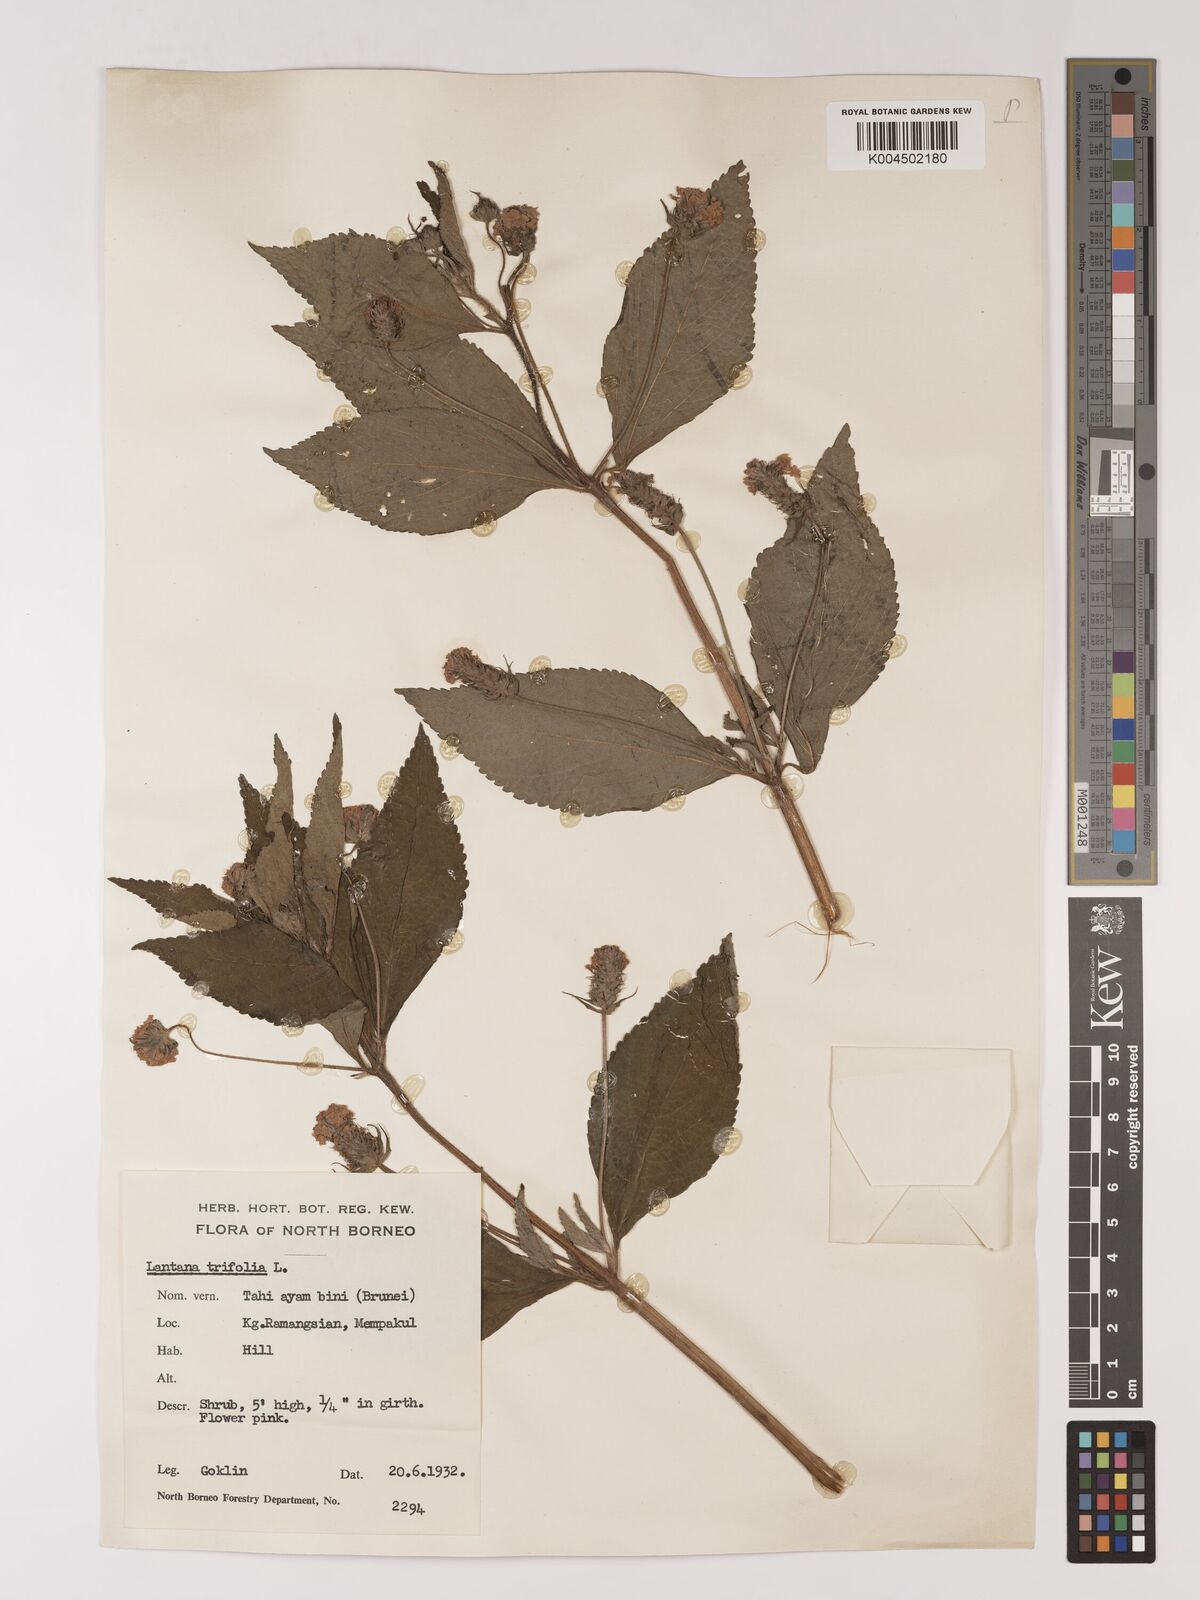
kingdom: Plantae
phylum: Tracheophyta
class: Magnoliopsida
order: Lamiales
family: Verbenaceae
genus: Lantana
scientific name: Lantana trifolia
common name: Sweet-sage
